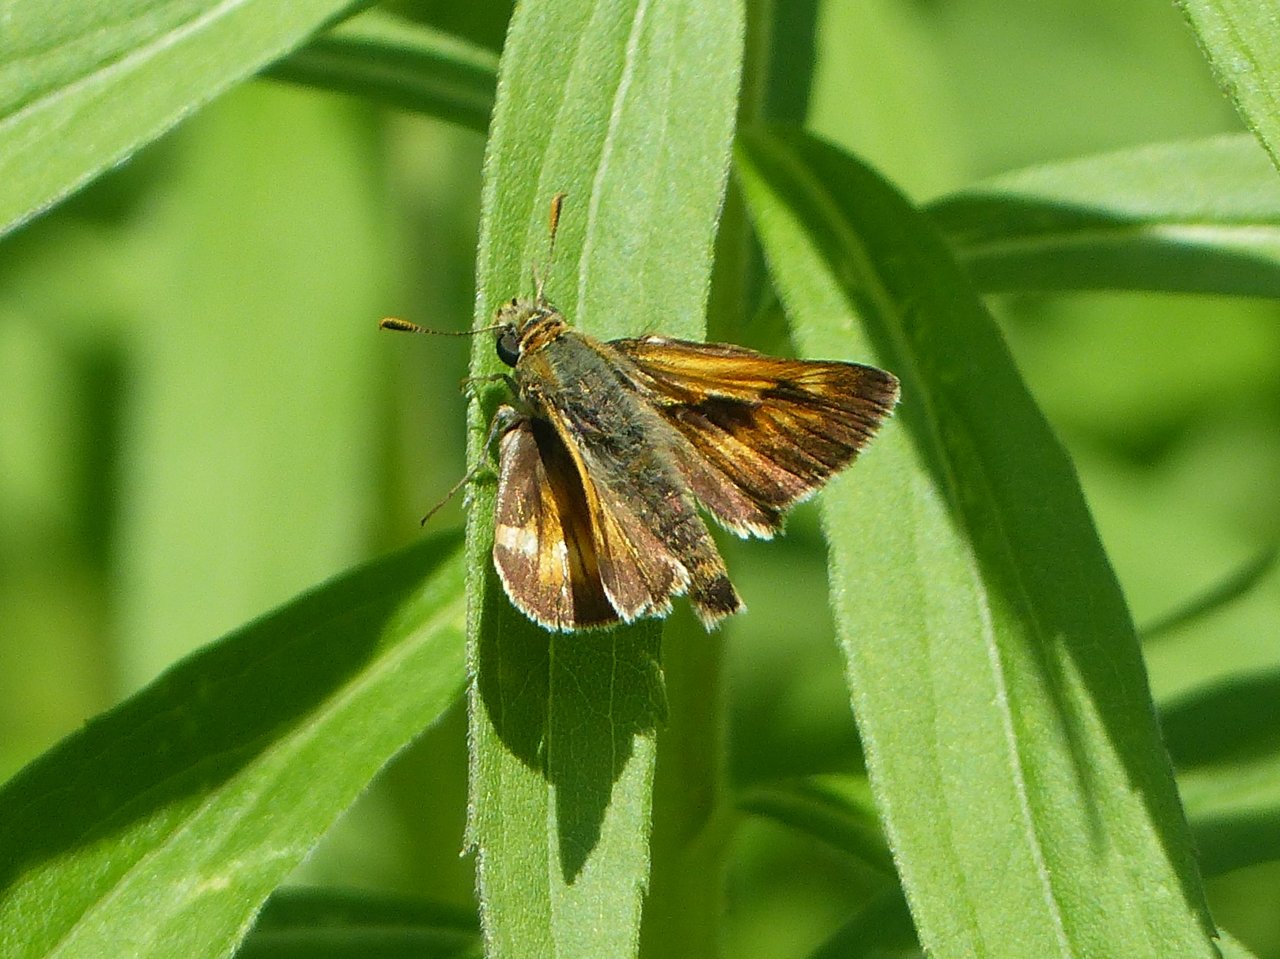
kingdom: Animalia
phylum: Arthropoda
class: Insecta
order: Lepidoptera
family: Hesperiidae
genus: Polites
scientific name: Polites
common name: Long Dash Skipper
